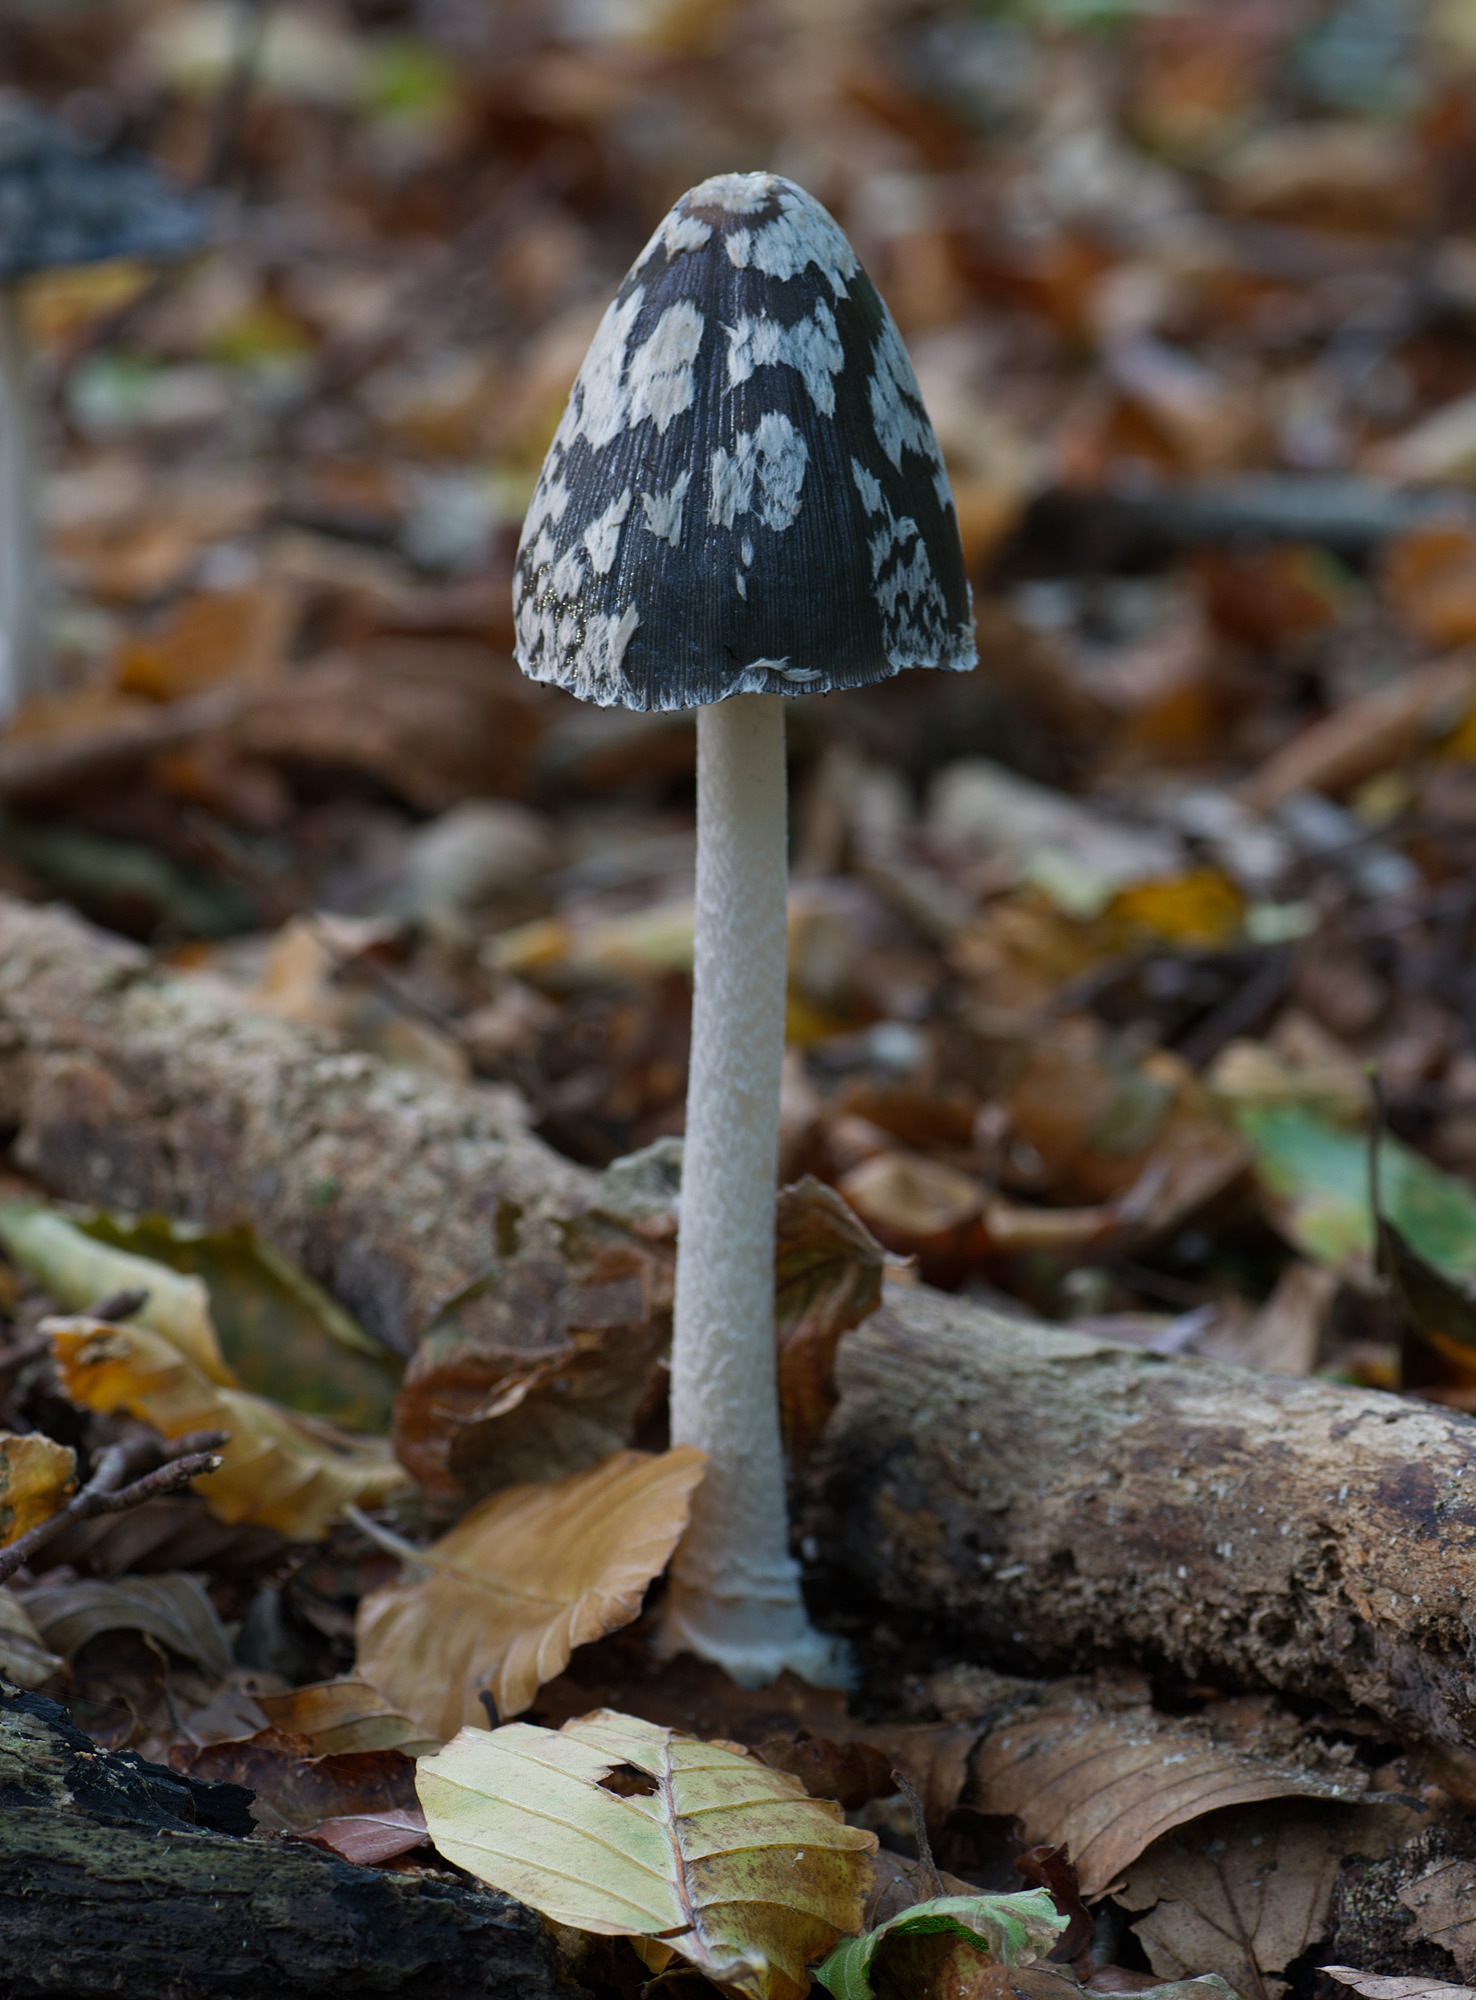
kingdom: Fungi
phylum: Basidiomycota
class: Agaricomycetes
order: Agaricales
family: Psathyrellaceae
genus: Coprinopsis
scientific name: Coprinopsis picacea
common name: skade-blækhat
